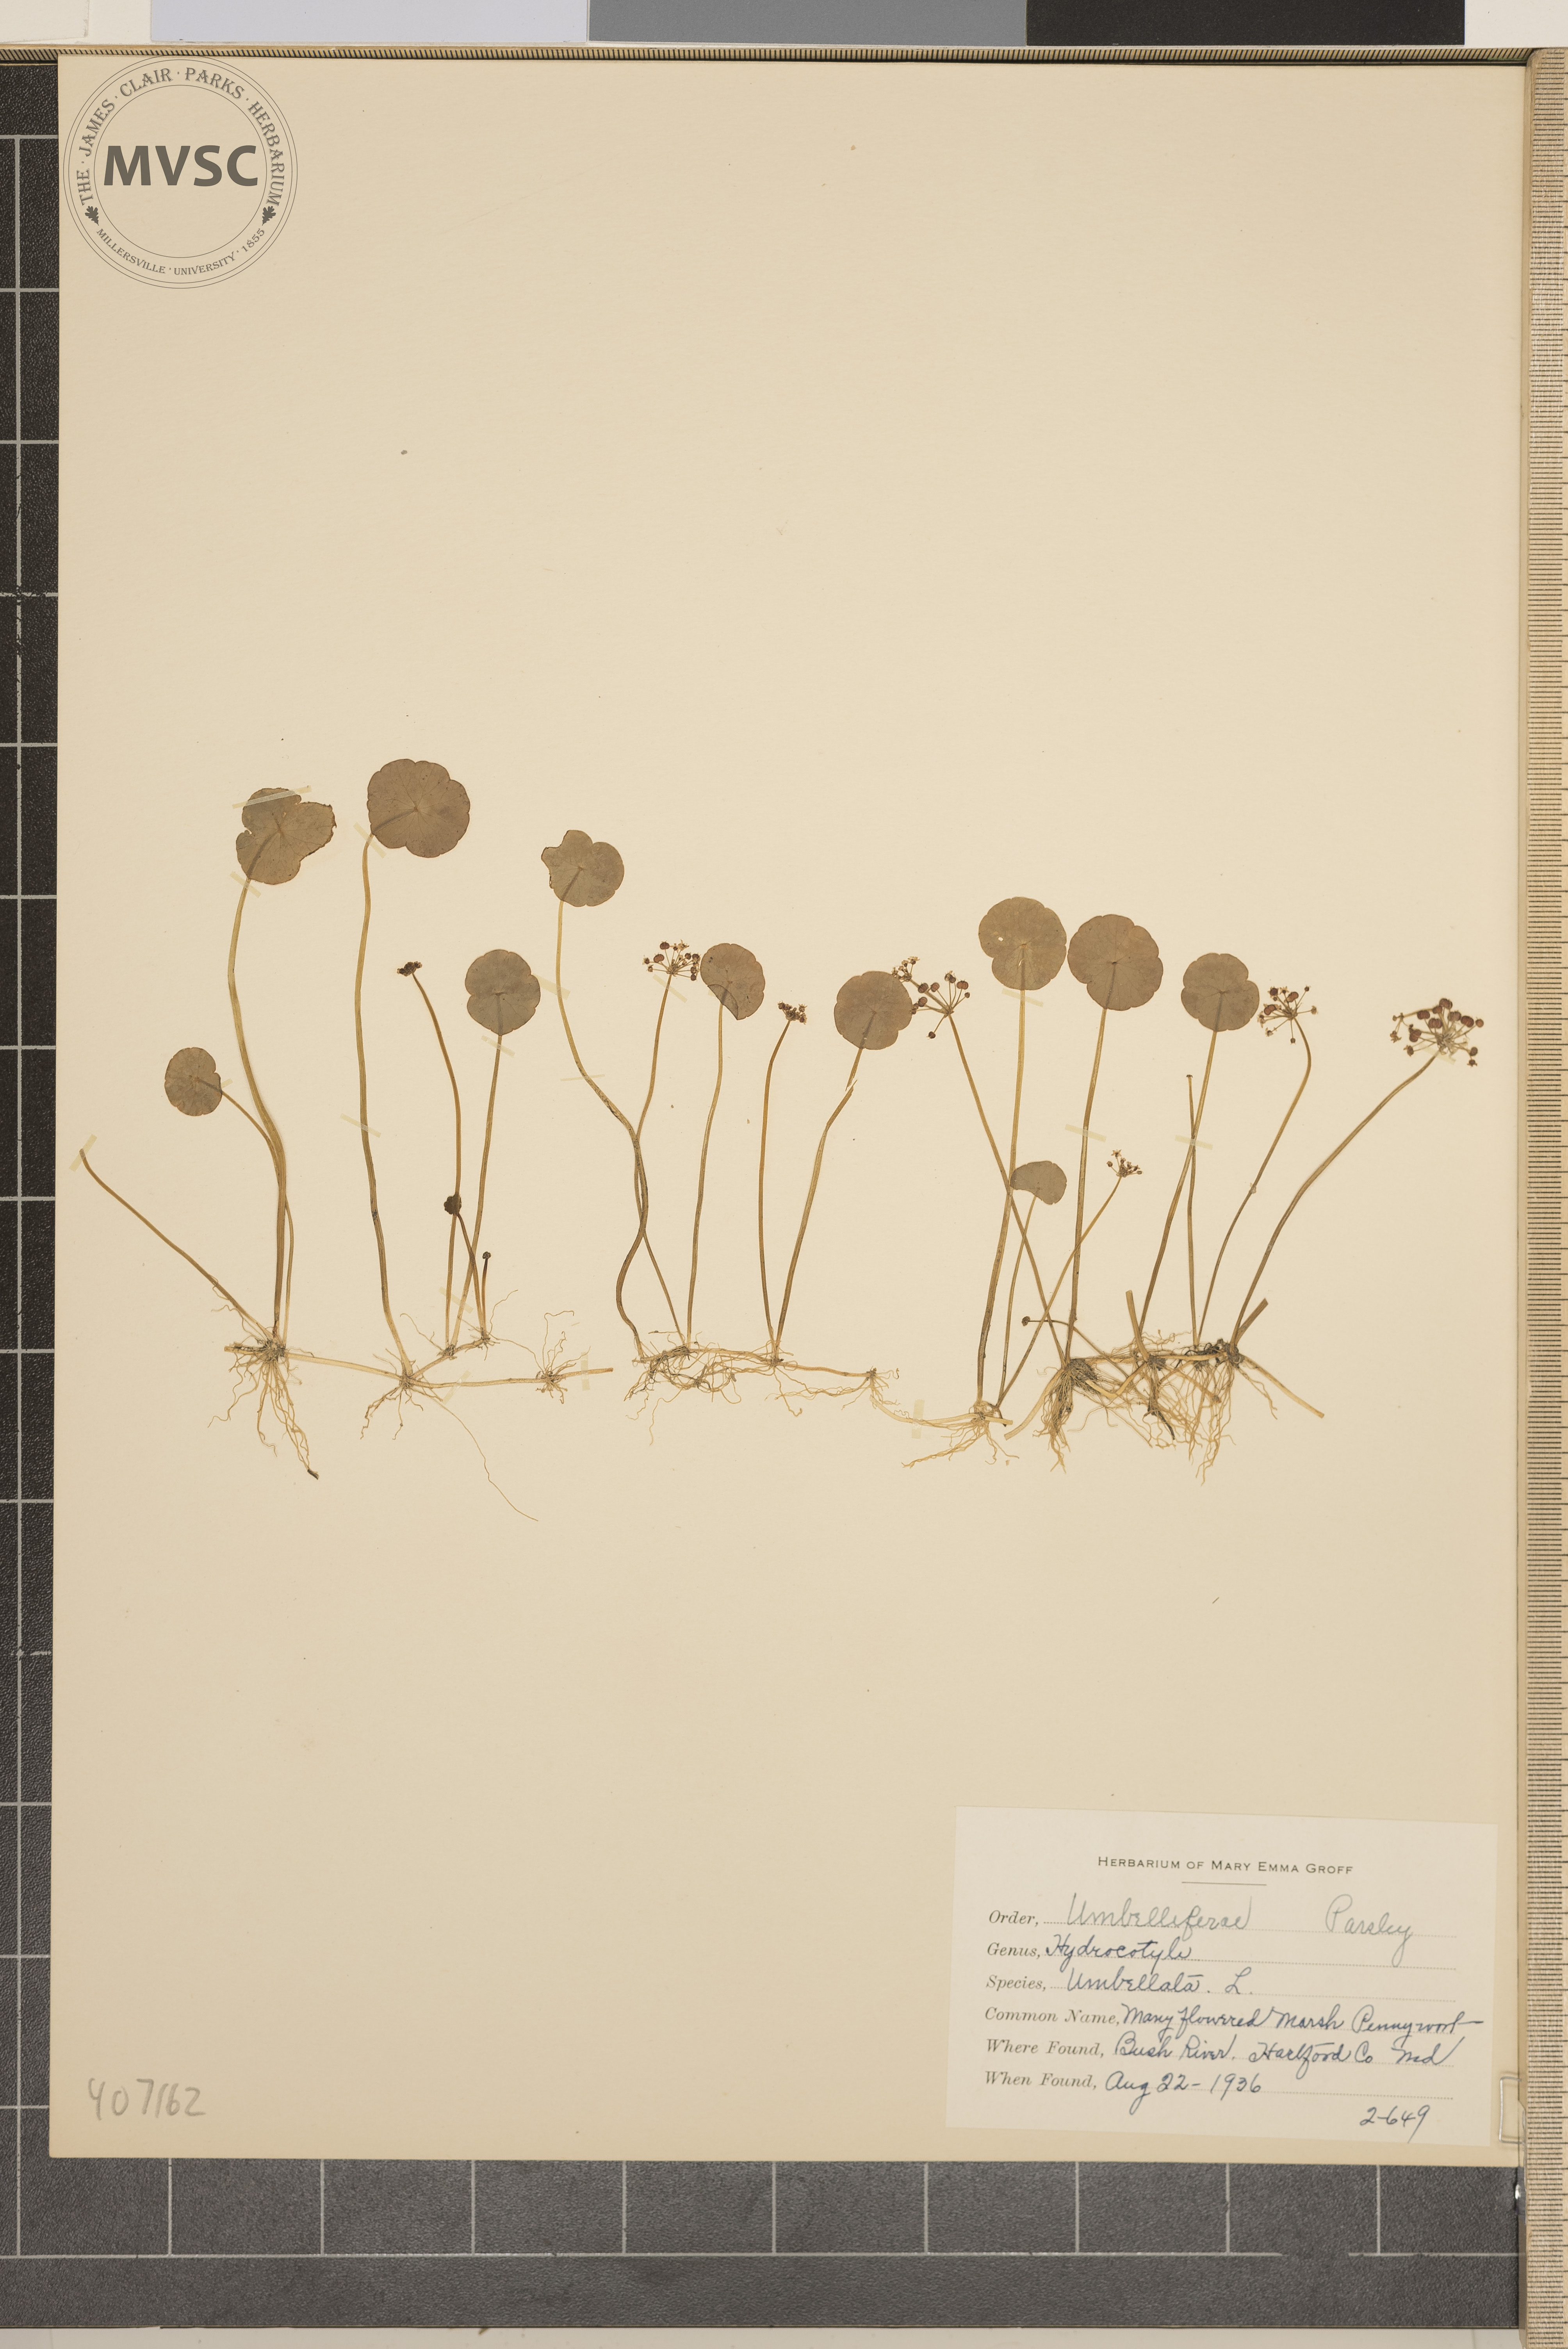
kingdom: Plantae
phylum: Tracheophyta
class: Magnoliopsida
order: Apiales
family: Araliaceae
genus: Hydrocotyle
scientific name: Hydrocotyle umbellata
